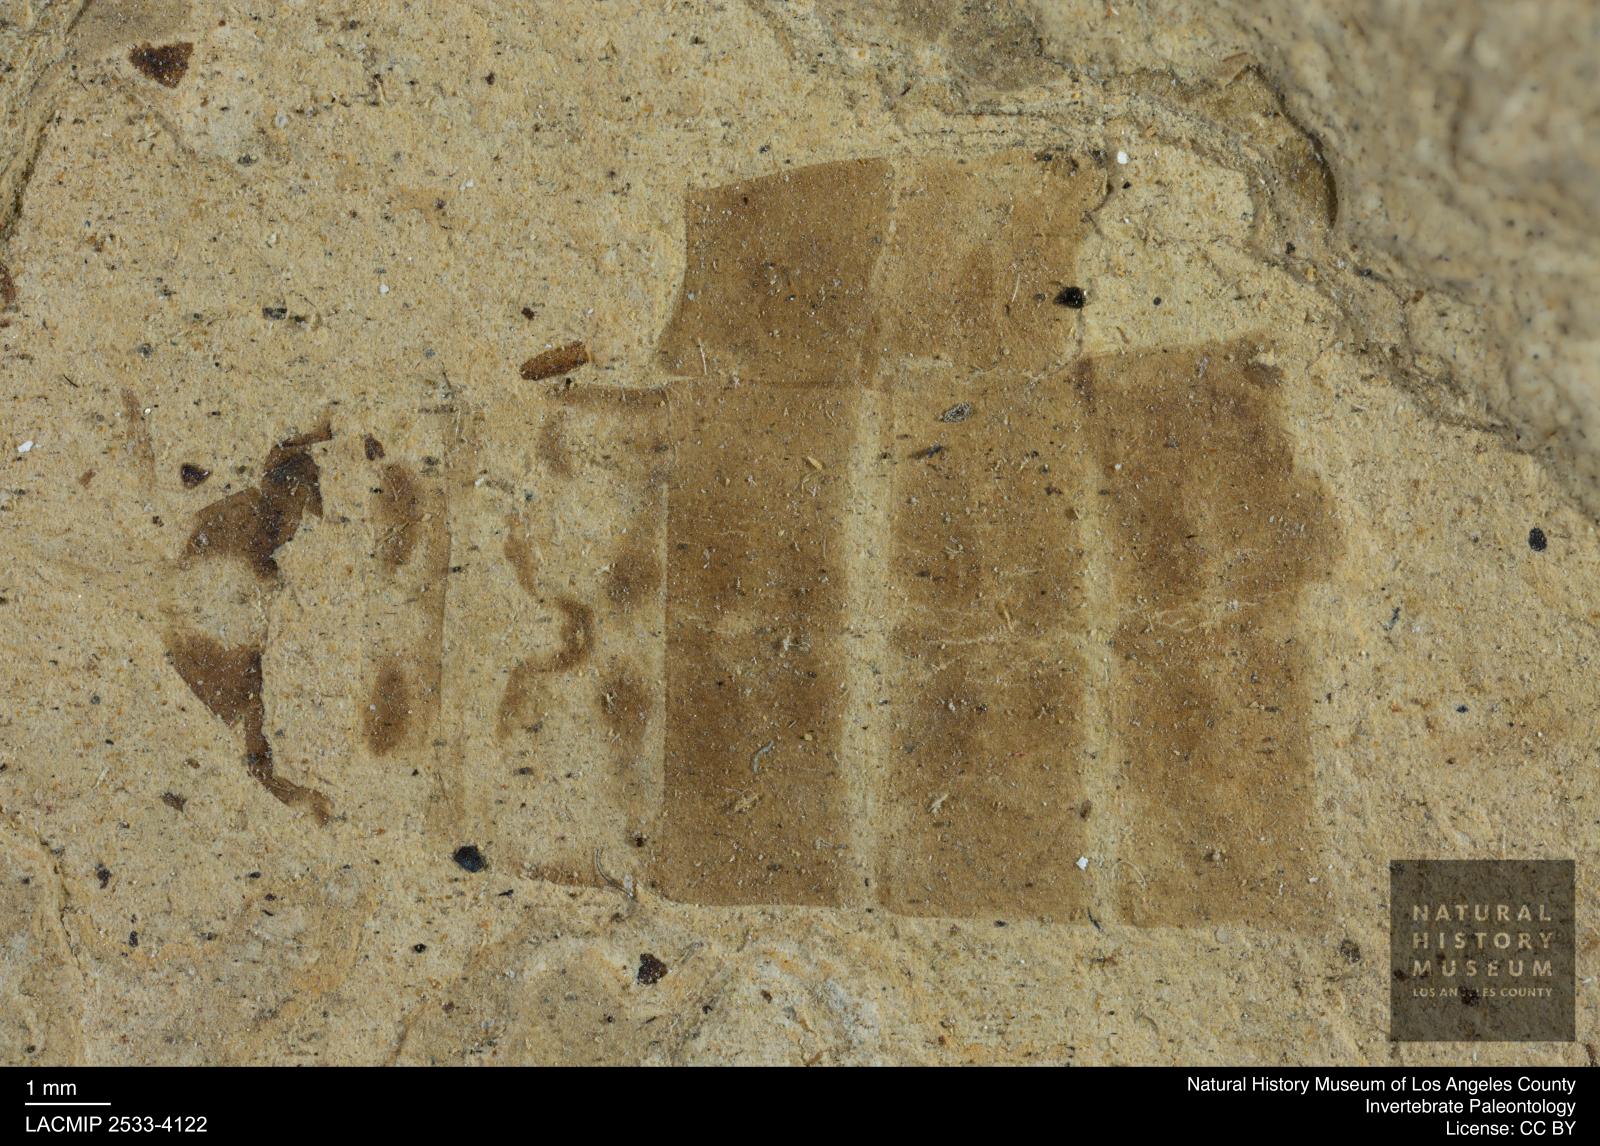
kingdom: Animalia
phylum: Arthropoda
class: Insecta
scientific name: Insecta
